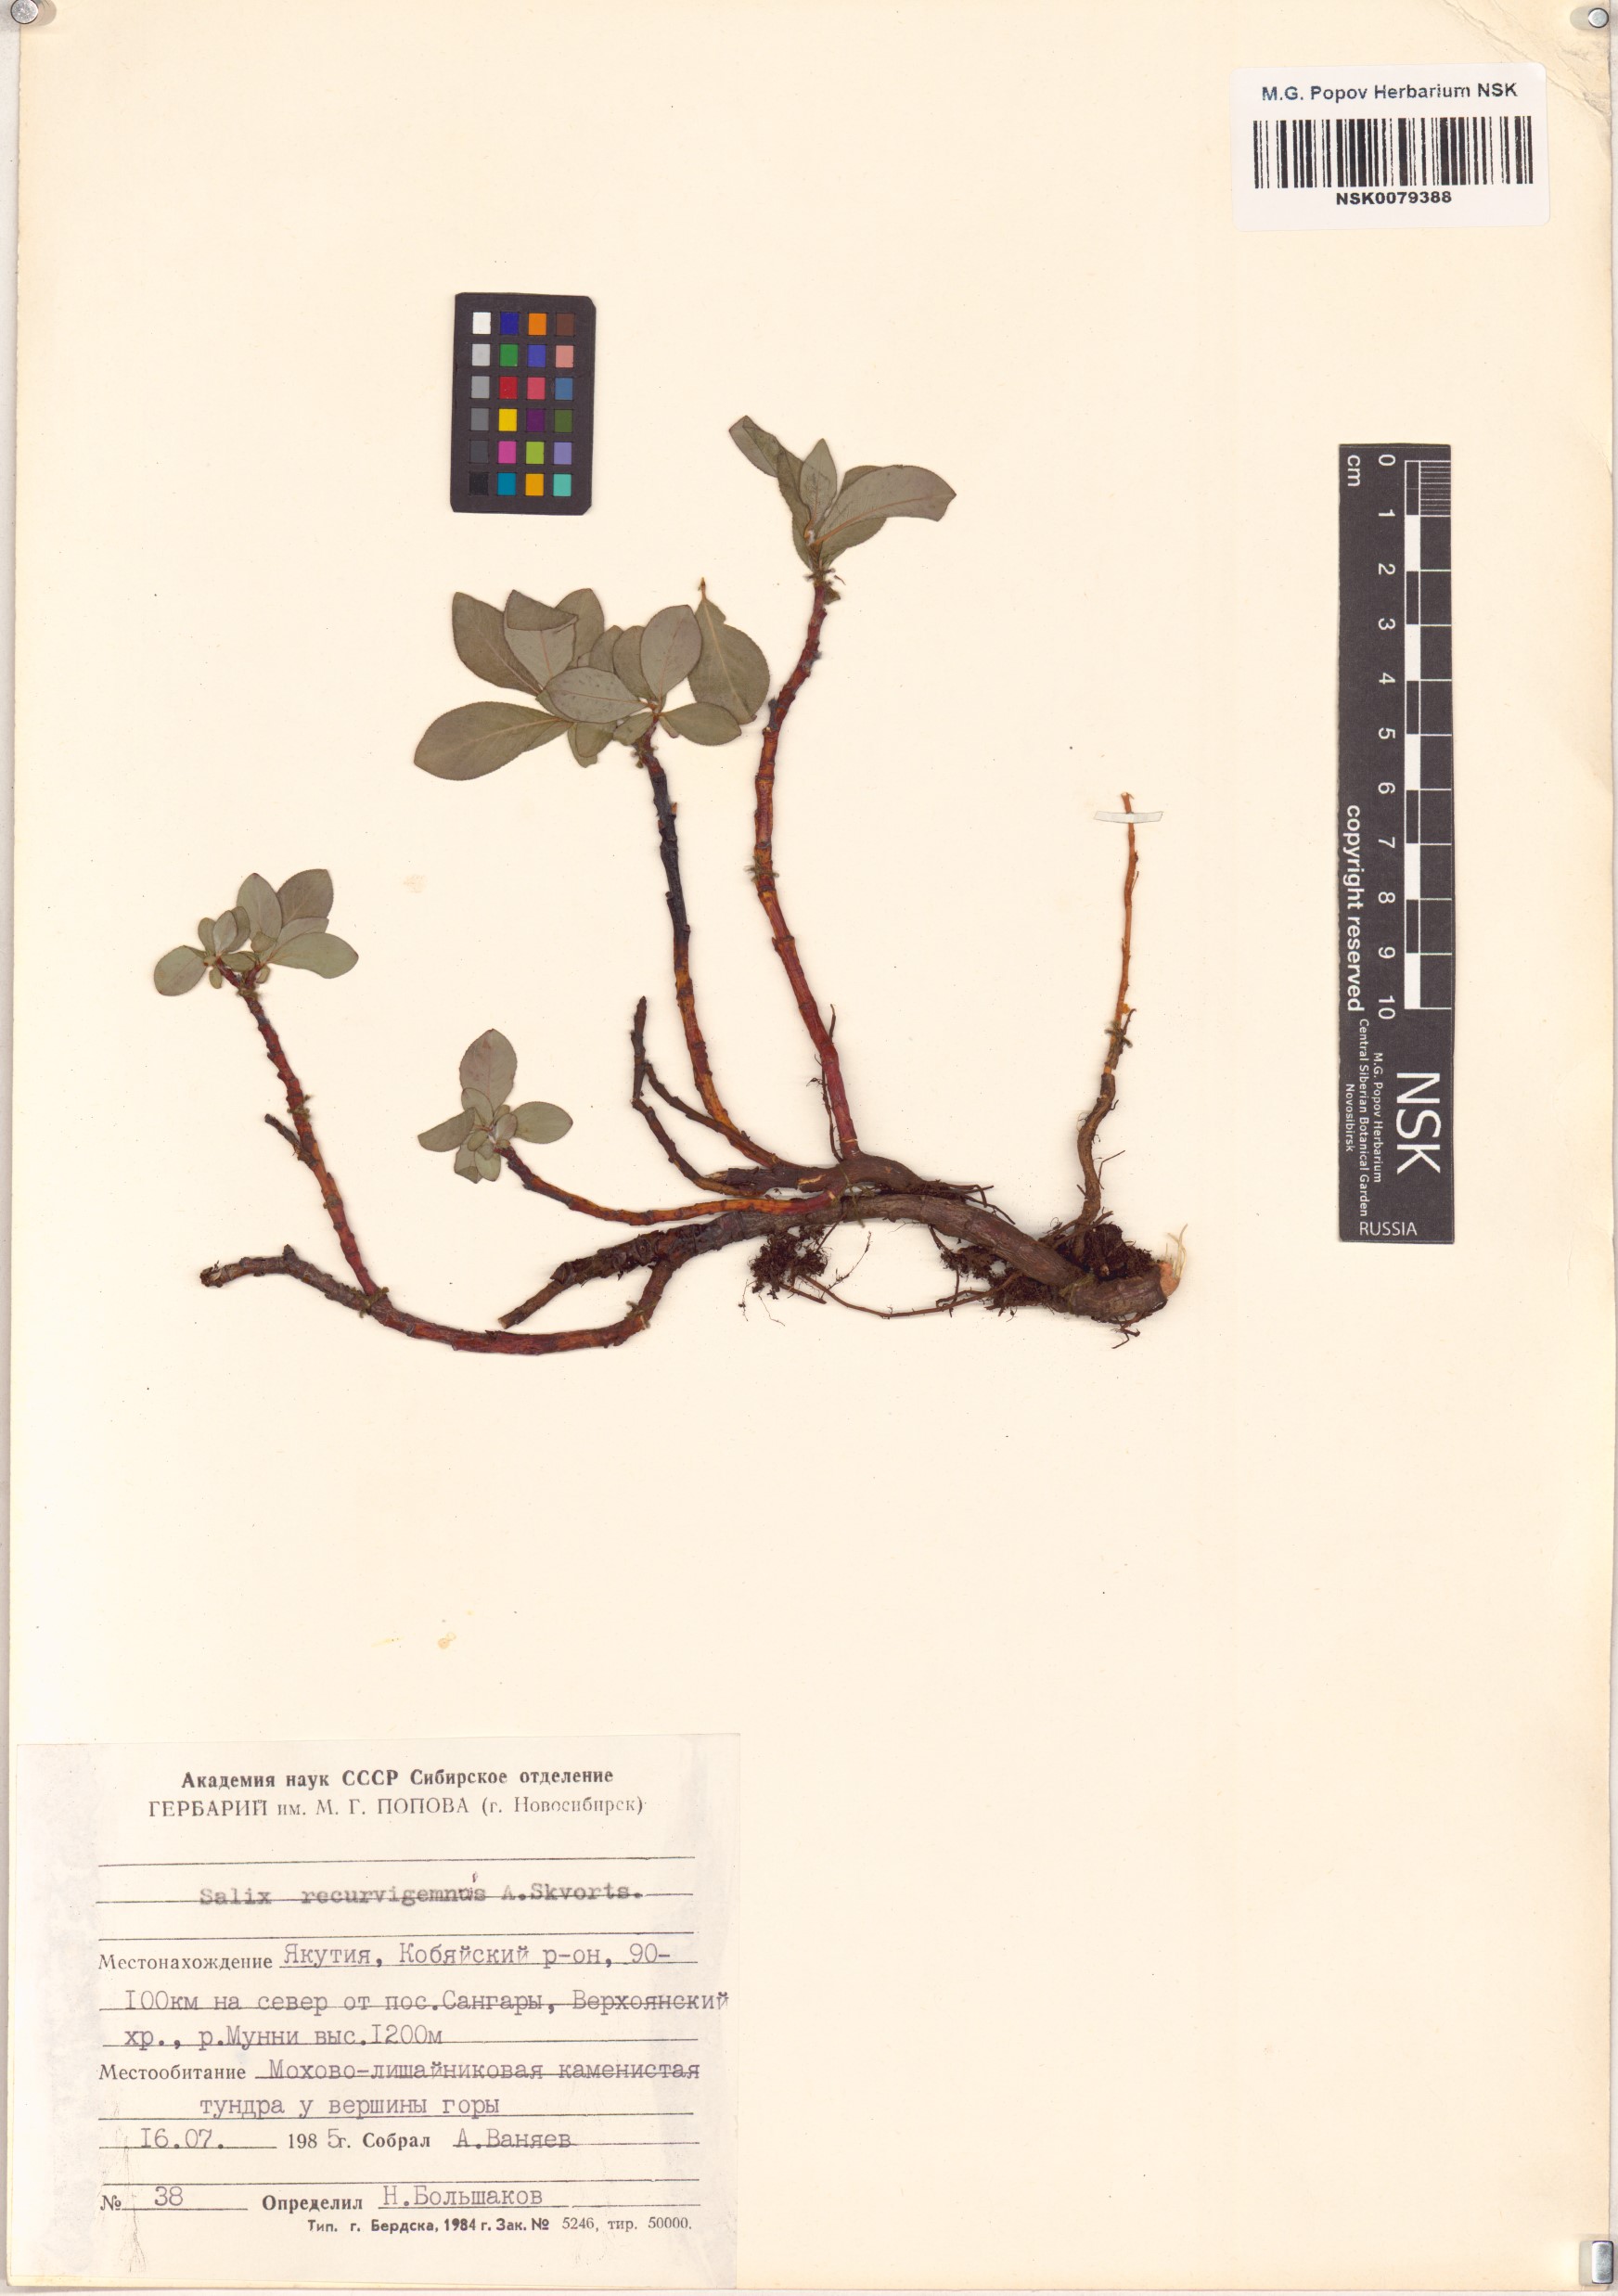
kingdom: Plantae
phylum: Tracheophyta
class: Magnoliopsida
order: Malpighiales
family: Salicaceae
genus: Salix
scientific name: Salix recurvigemmata
